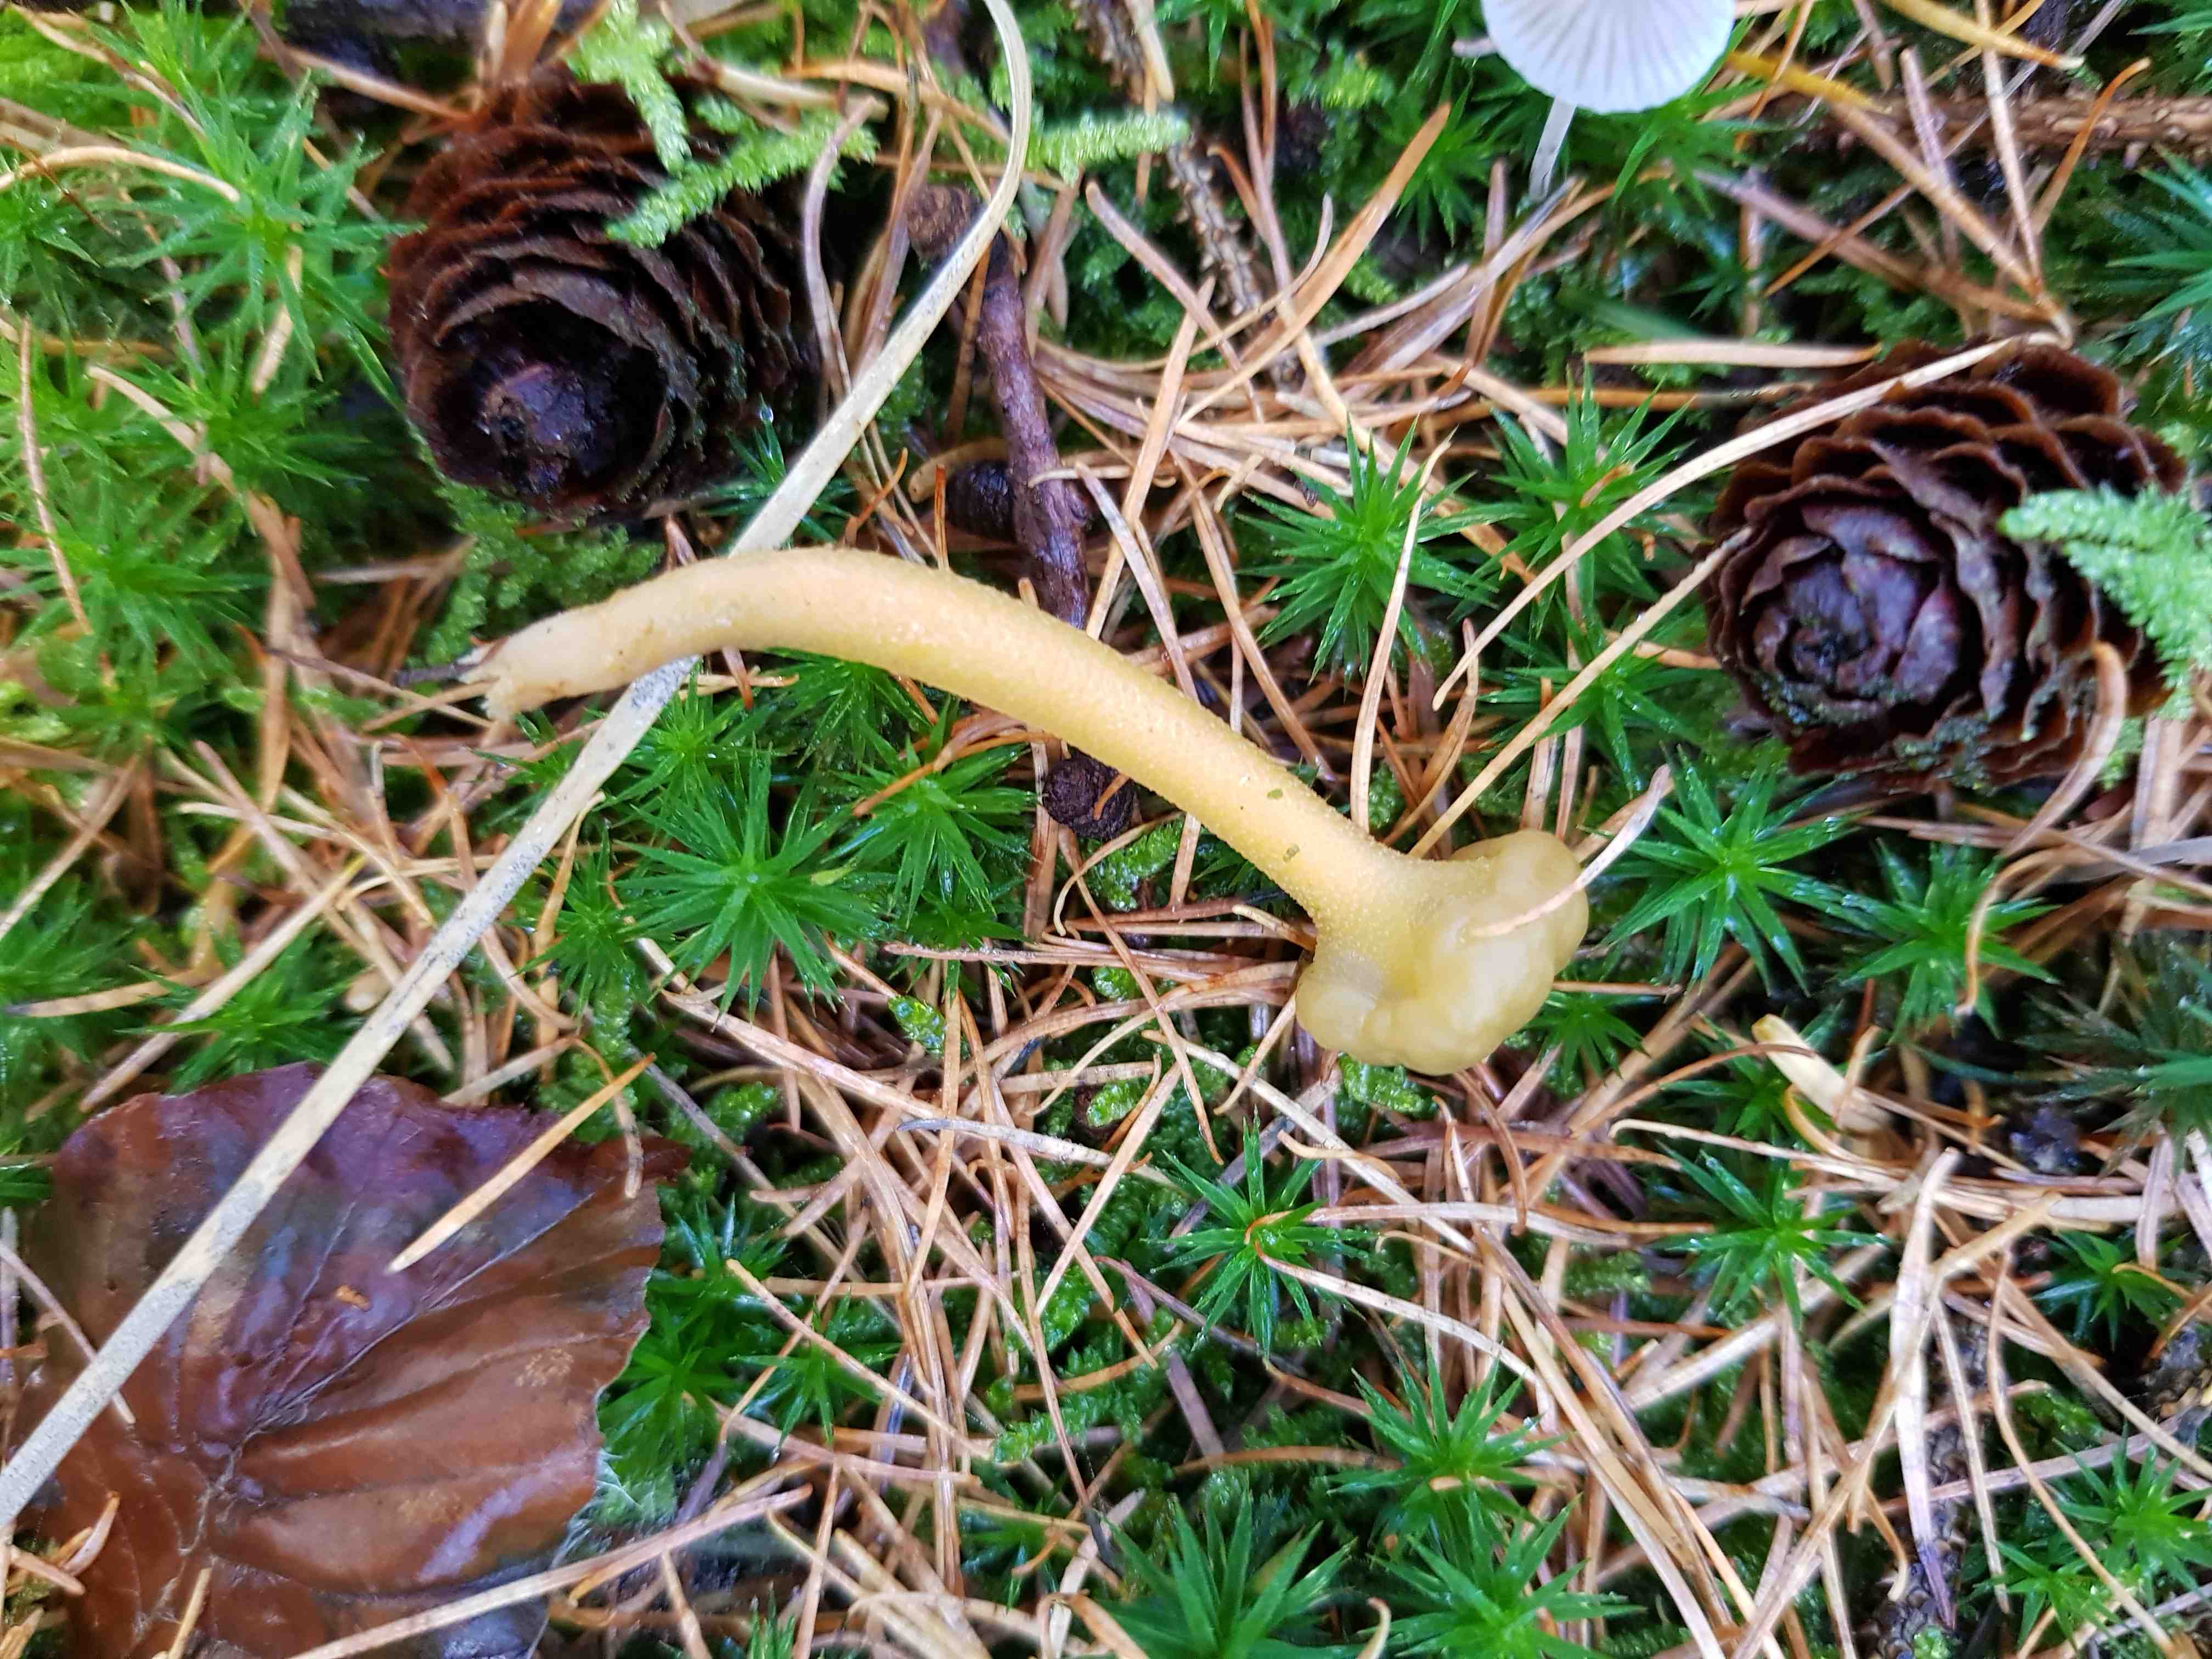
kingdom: Fungi
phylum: Ascomycota
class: Leotiomycetes
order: Leotiales
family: Leotiaceae
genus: Leotia
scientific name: Leotia lubrica
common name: ravsvamp
